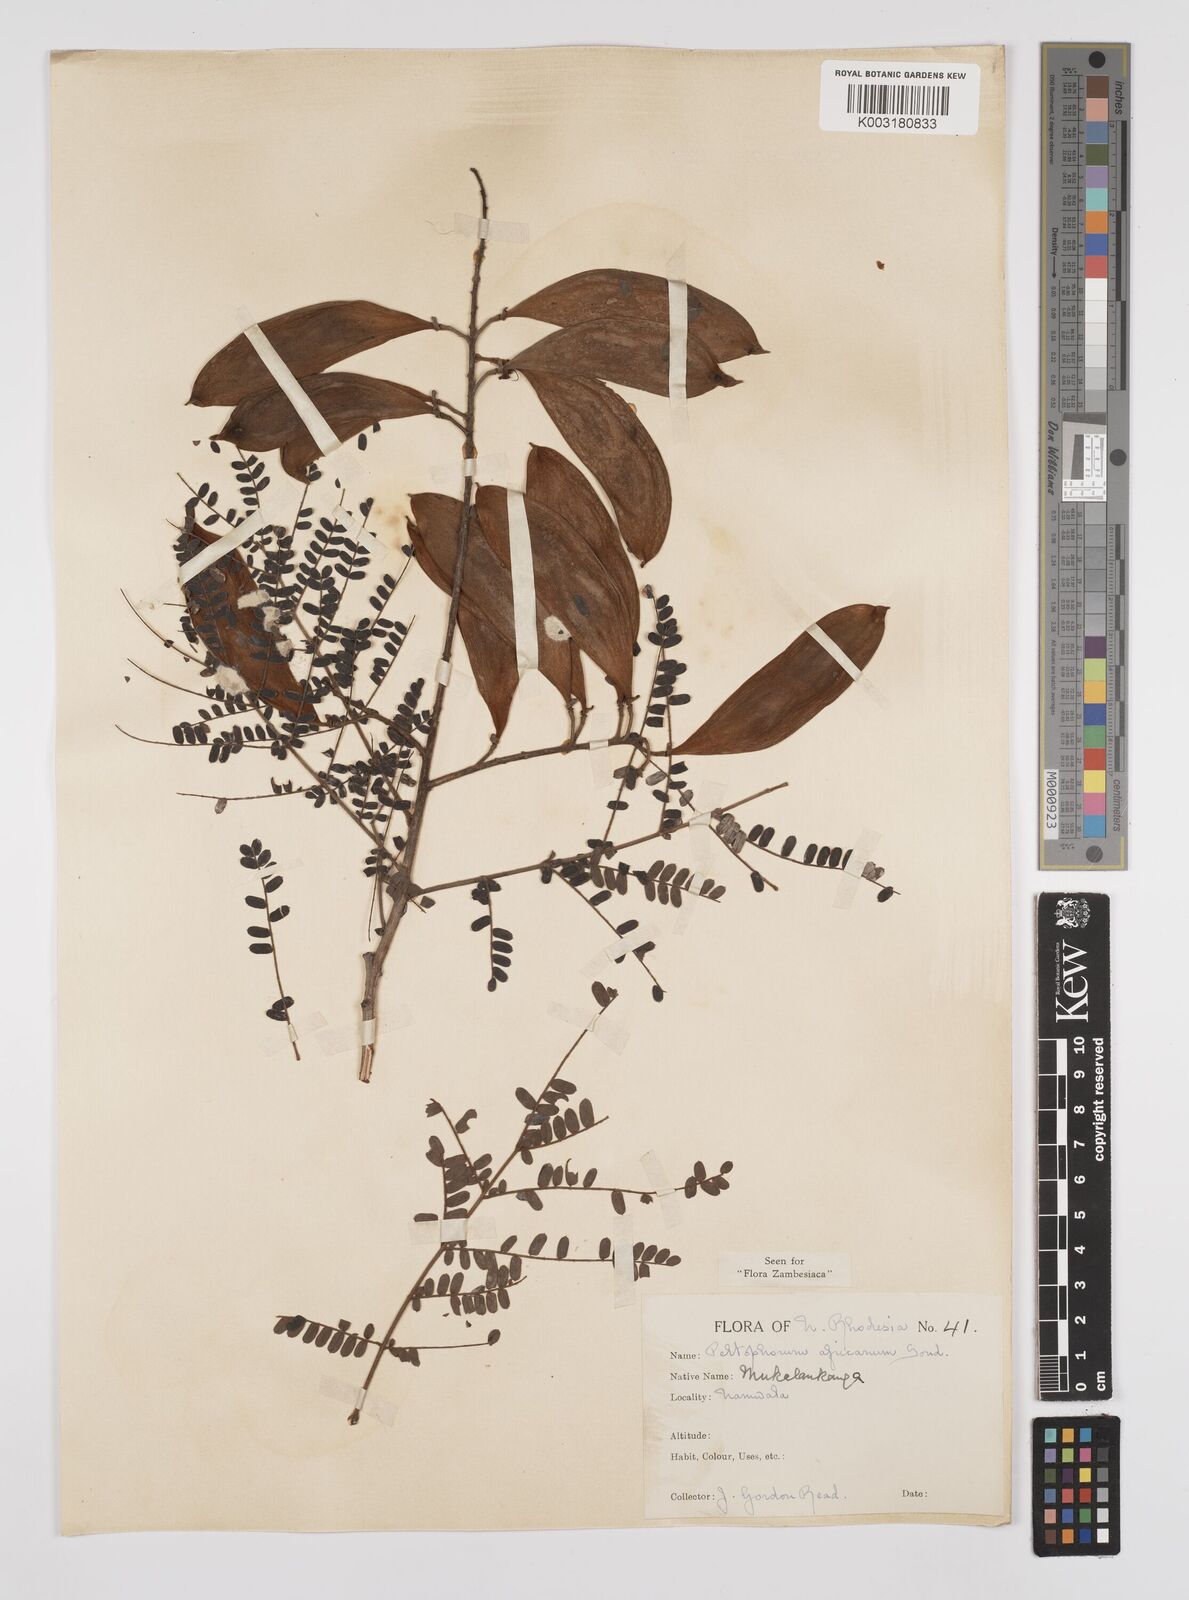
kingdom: Plantae
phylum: Tracheophyta
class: Magnoliopsida
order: Fabales
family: Fabaceae
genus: Peltophorum
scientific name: Peltophorum africanum
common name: African black wattle
